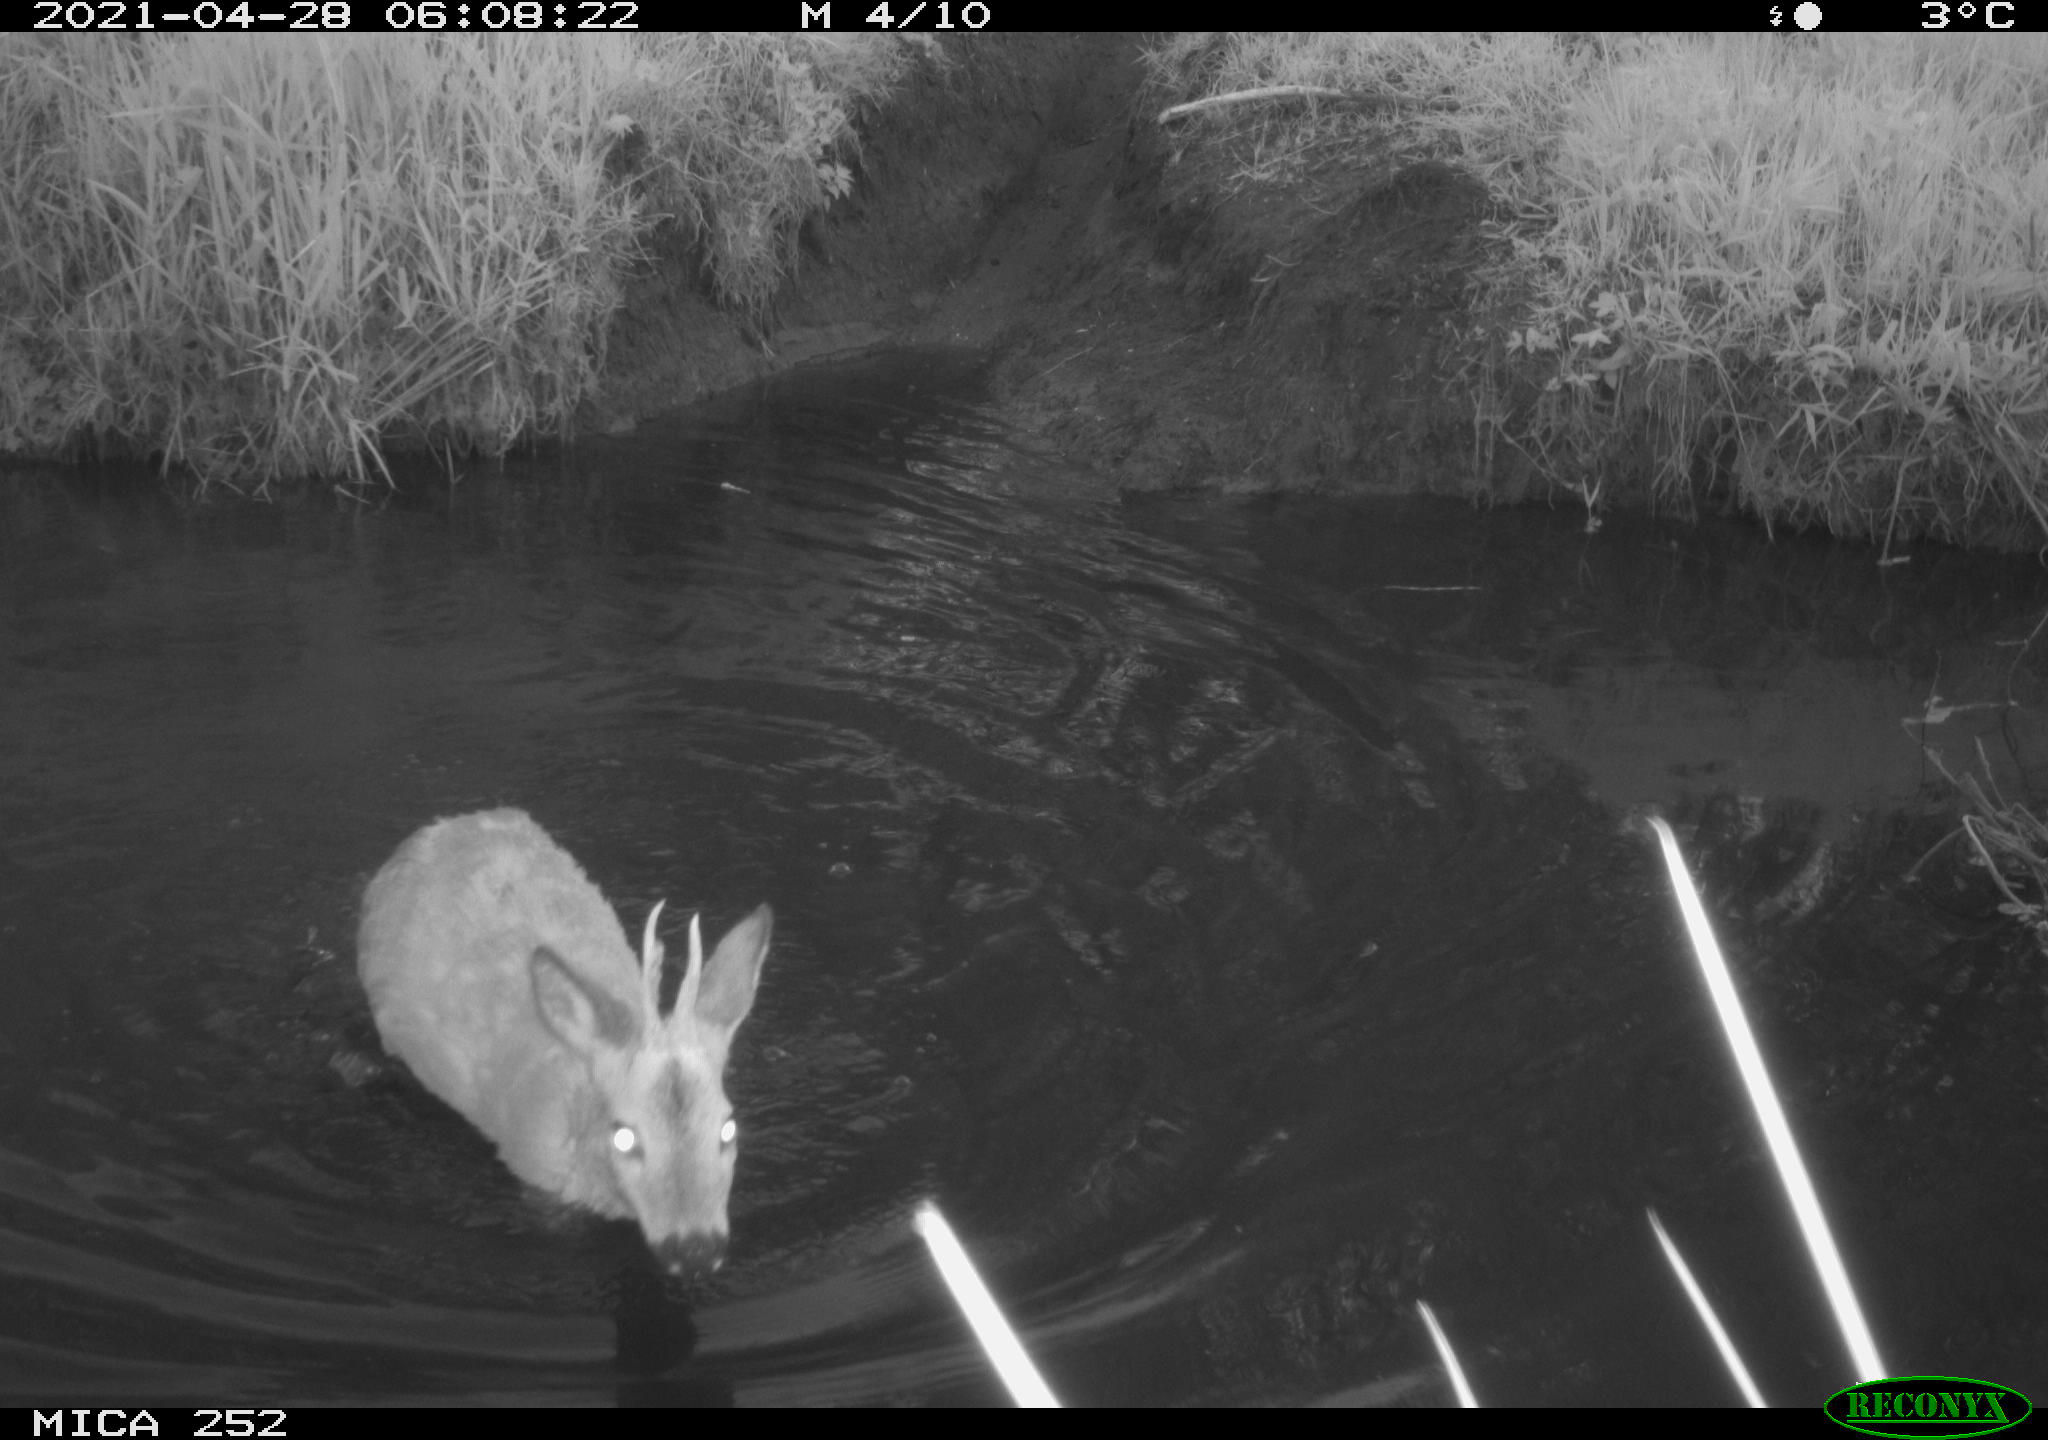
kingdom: Animalia
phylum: Chordata
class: Mammalia
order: Artiodactyla
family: Cervidae
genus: Capreolus
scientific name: Capreolus capreolus
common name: Western roe deer
